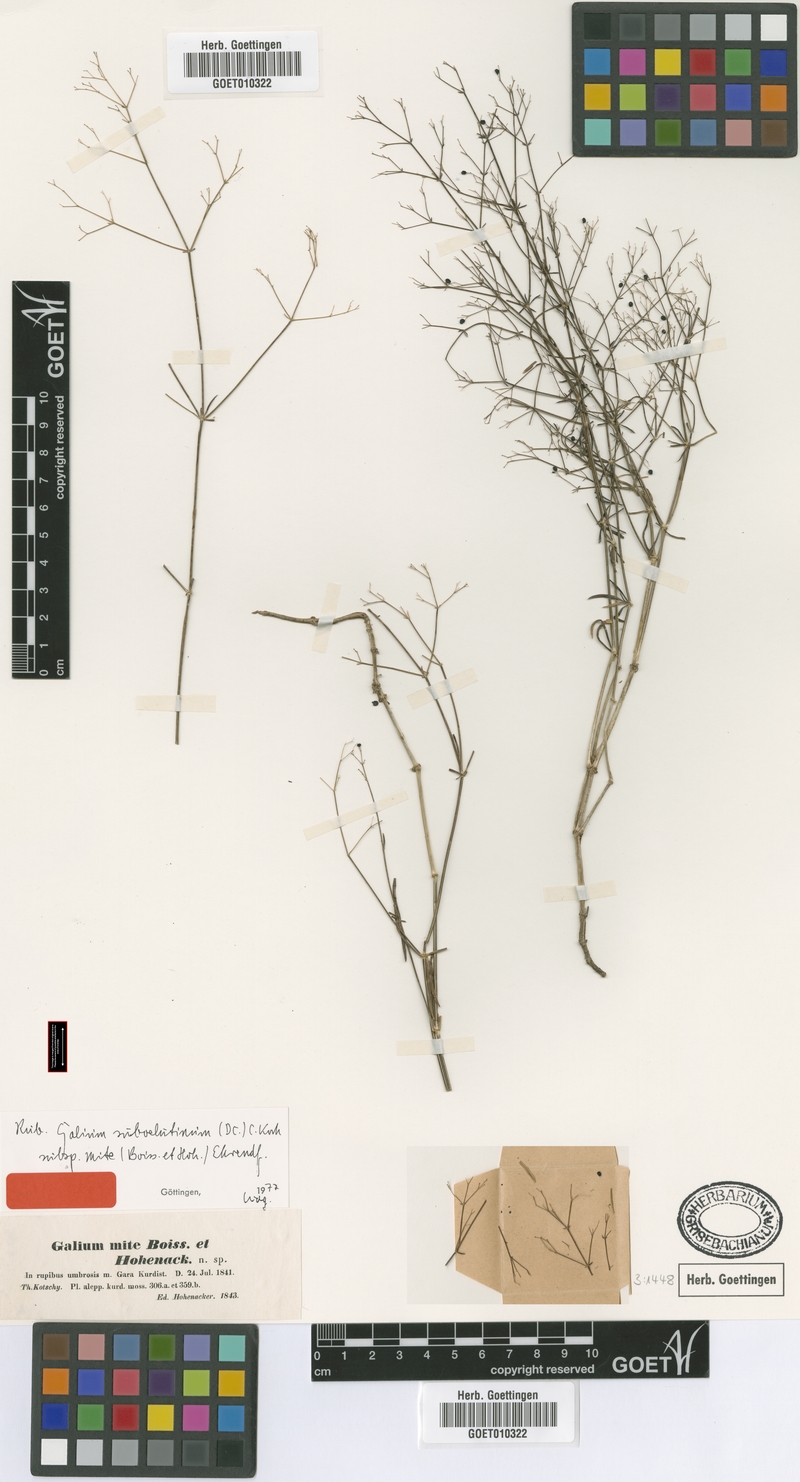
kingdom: Plantae
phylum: Tracheophyta
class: Magnoliopsida
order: Gentianales
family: Rubiaceae
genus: Galium
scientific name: Galium mite
